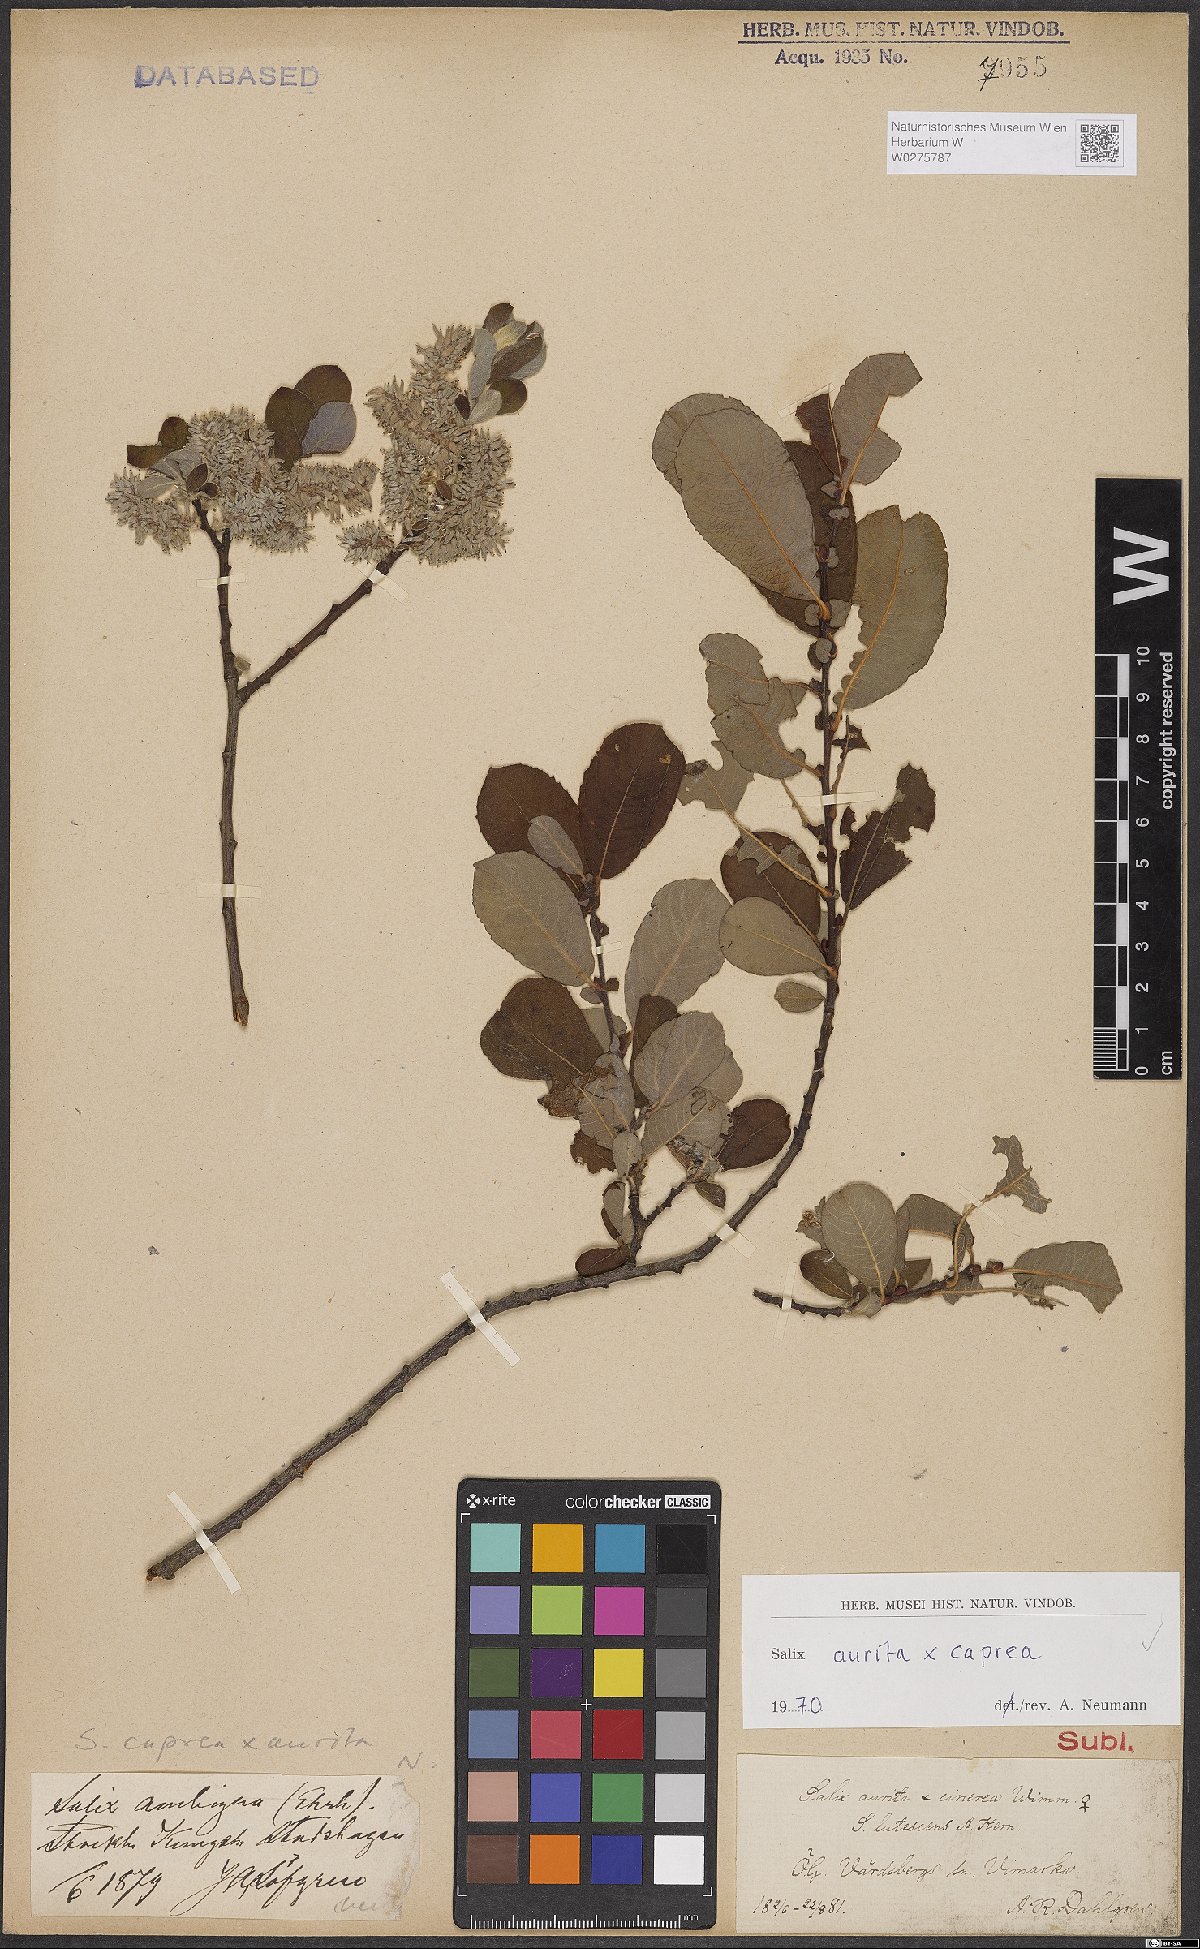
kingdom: Plantae
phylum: Tracheophyta
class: Magnoliopsida
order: Malpighiales
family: Salicaceae
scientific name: Salicaceae
